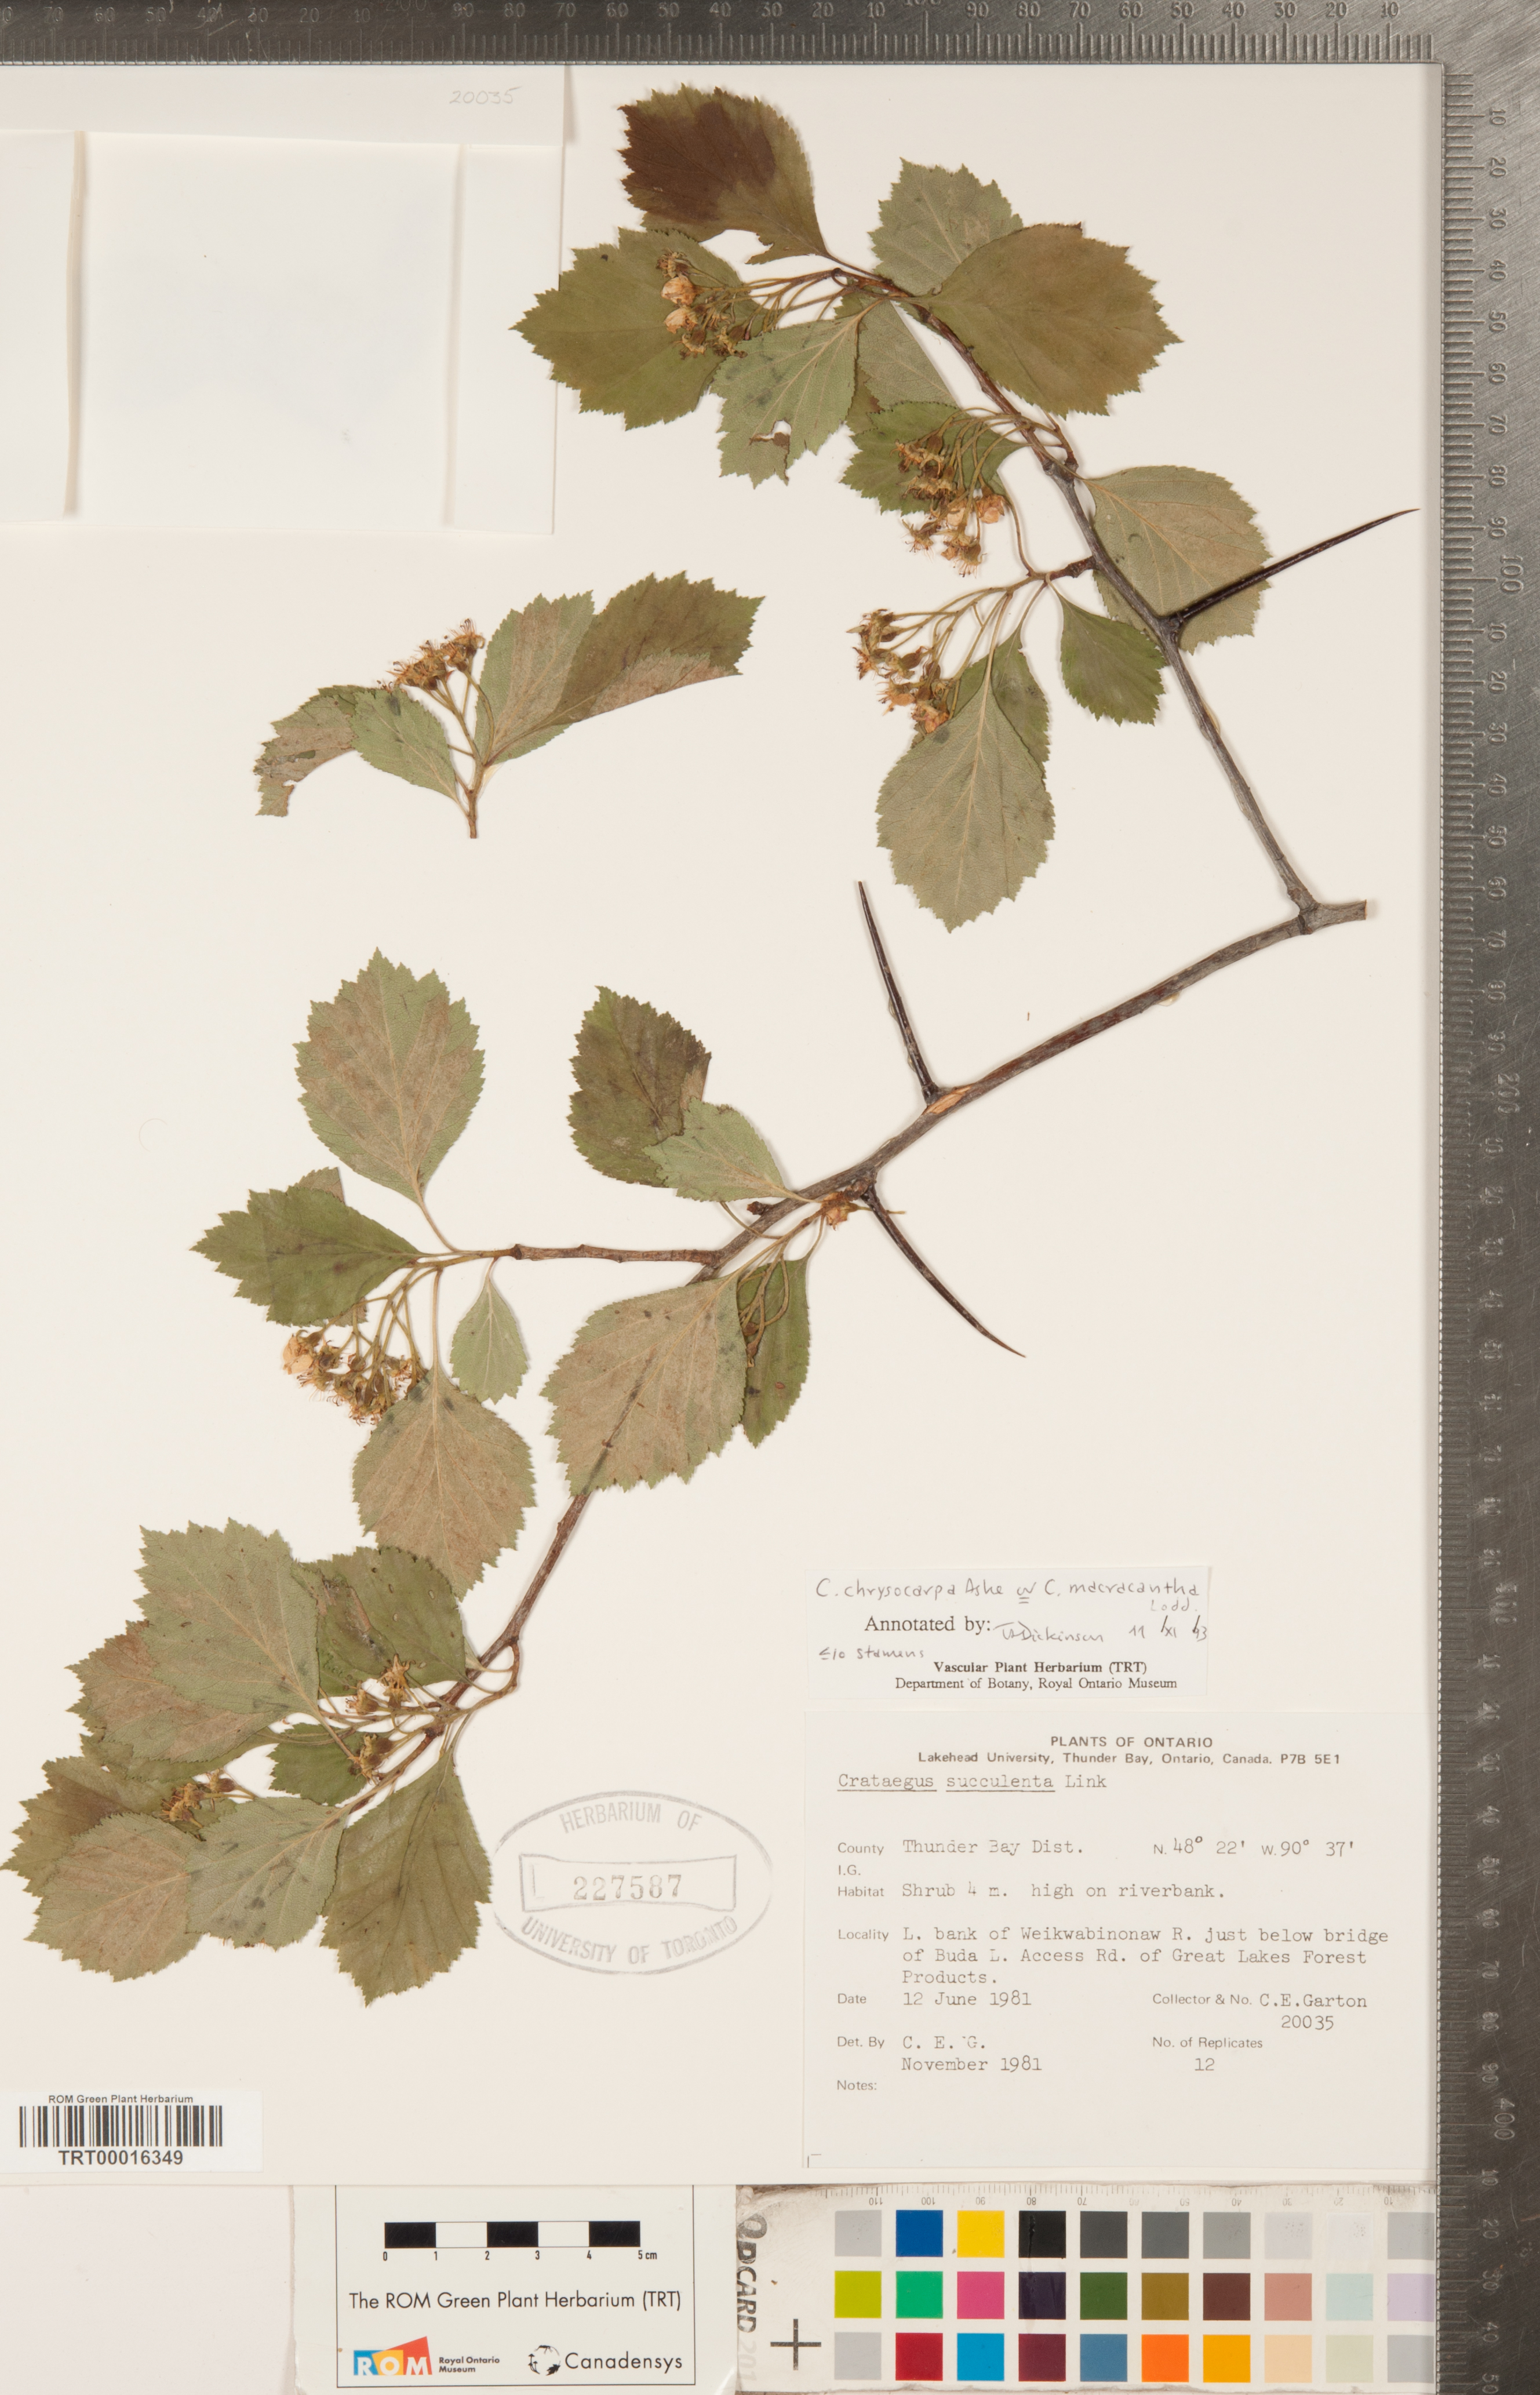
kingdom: Plantae
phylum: Tracheophyta
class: Magnoliopsida
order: Rosales
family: Rosaceae
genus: Crataegus
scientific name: Crataegus chrysocarpa
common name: Fire-berry hawthorn
